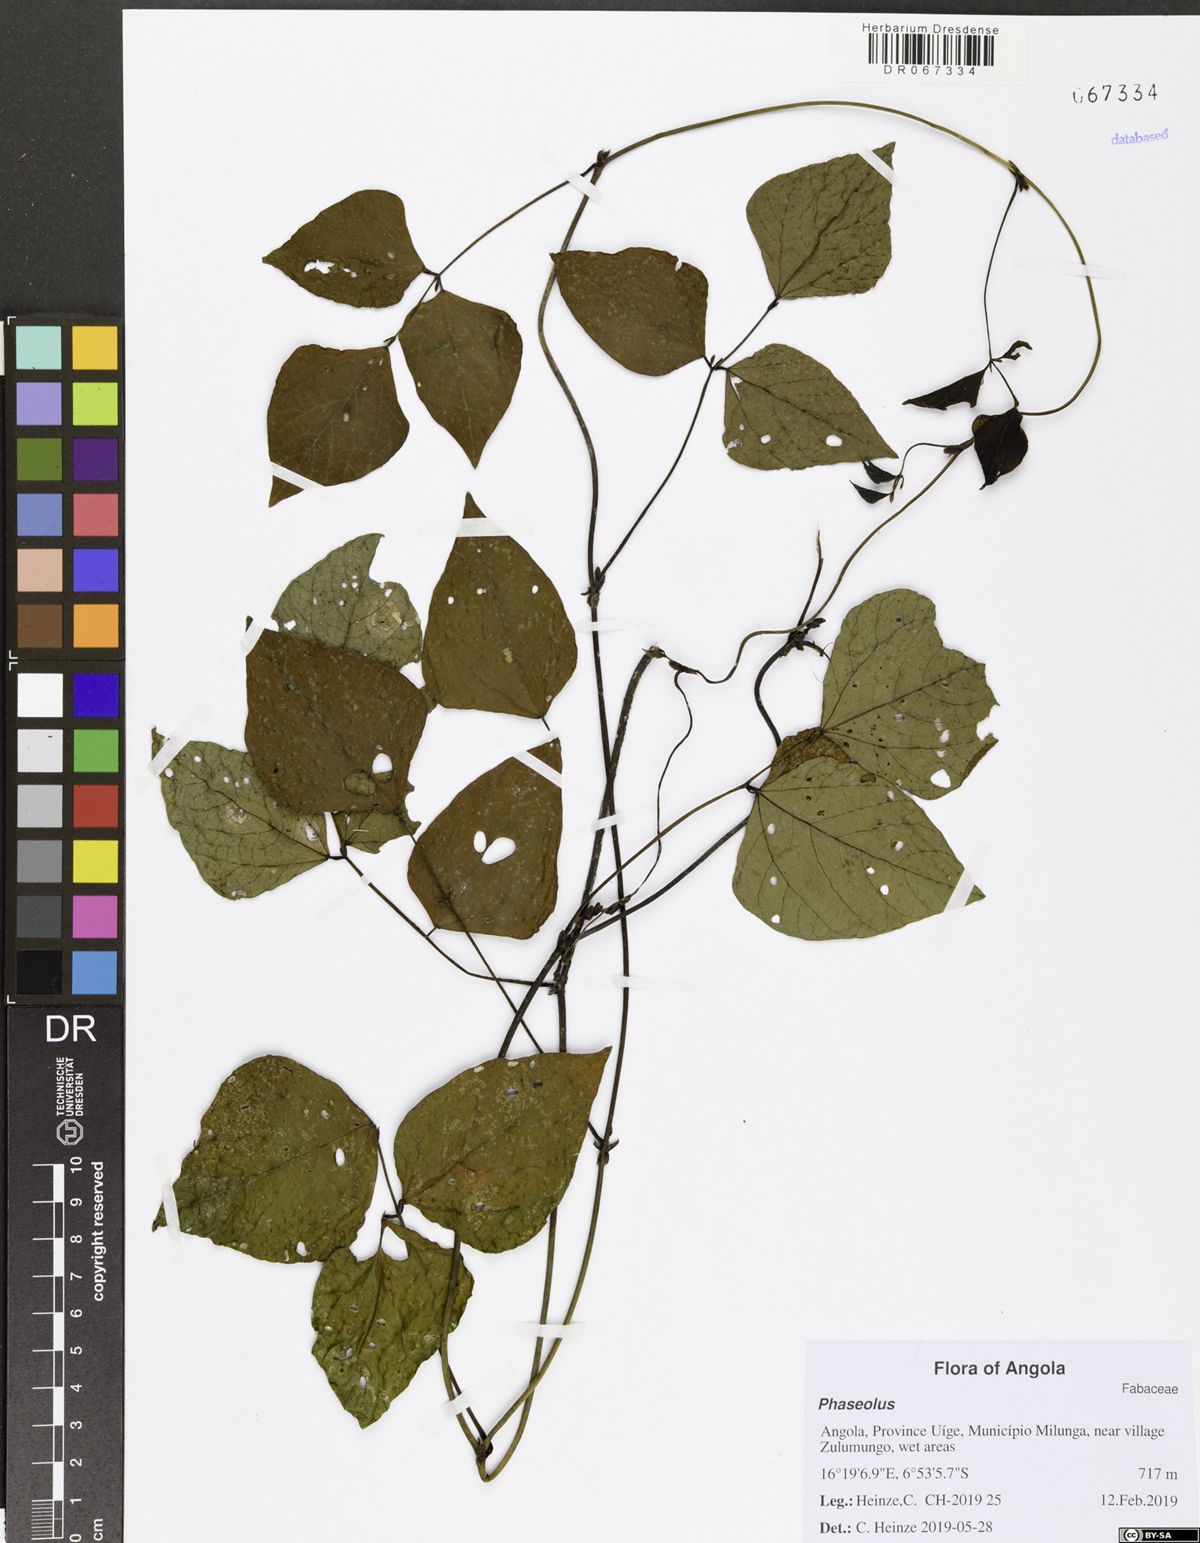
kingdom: Plantae
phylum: Tracheophyta
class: Magnoliopsida
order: Fabales
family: Fabaceae
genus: Phaseolus
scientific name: Phaseolus
